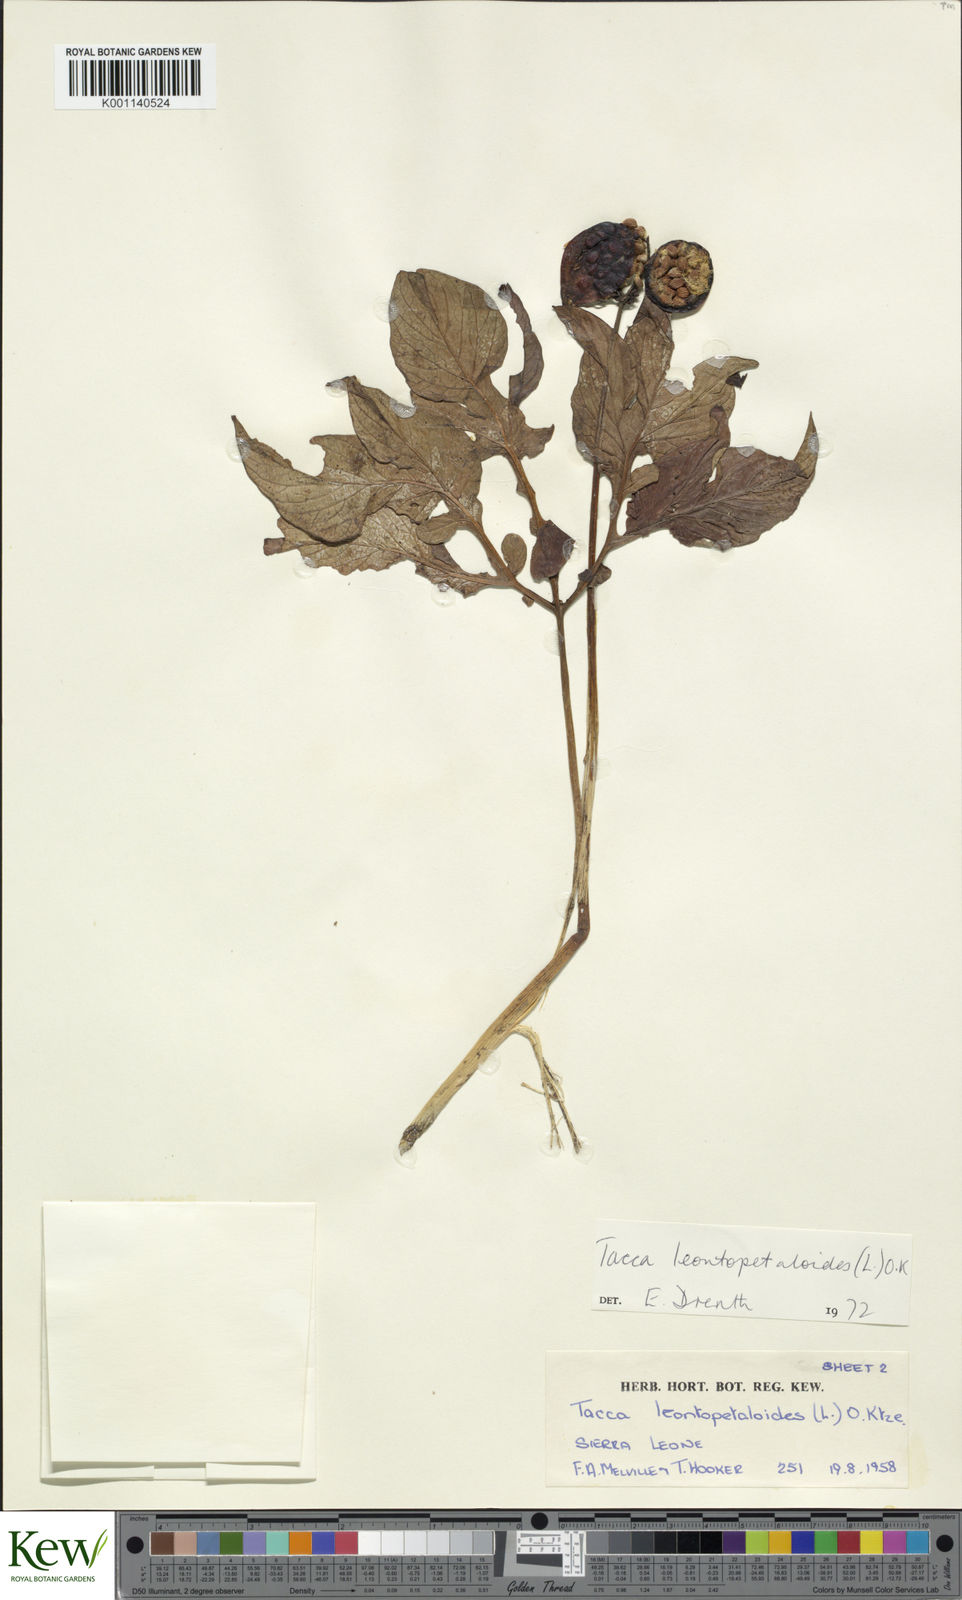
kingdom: Plantae
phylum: Tracheophyta
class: Liliopsida
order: Dioscoreales
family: Dioscoreaceae
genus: Tacca
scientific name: Tacca leontopetaloides
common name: Arrowroot
